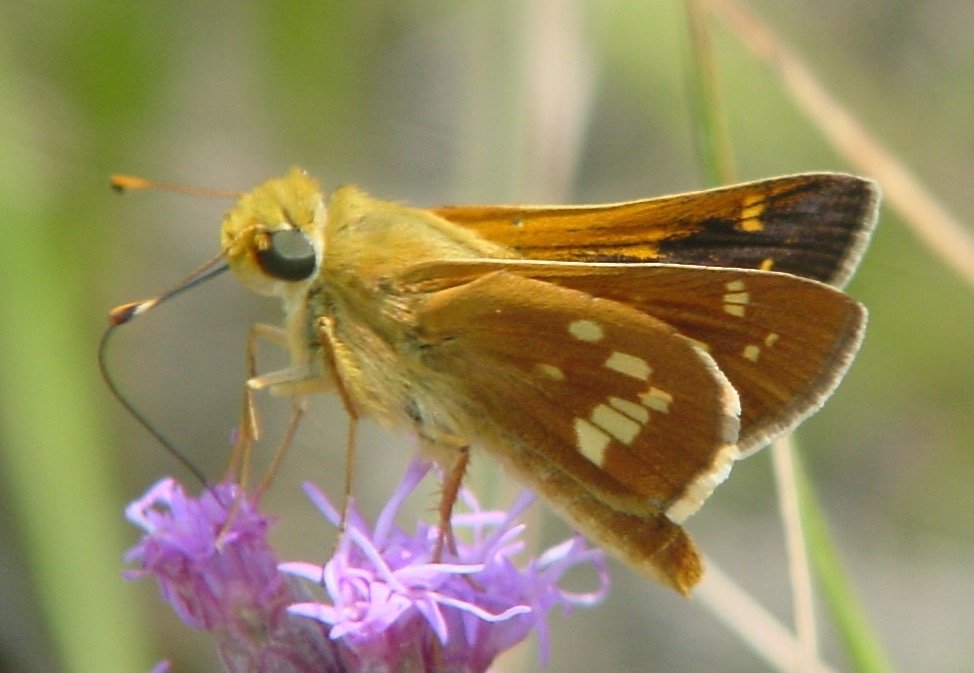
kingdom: Animalia
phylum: Arthropoda
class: Insecta
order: Lepidoptera
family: Hesperiidae
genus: Hesperia
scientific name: Hesperia leonardus
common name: Leonard's Skipper
